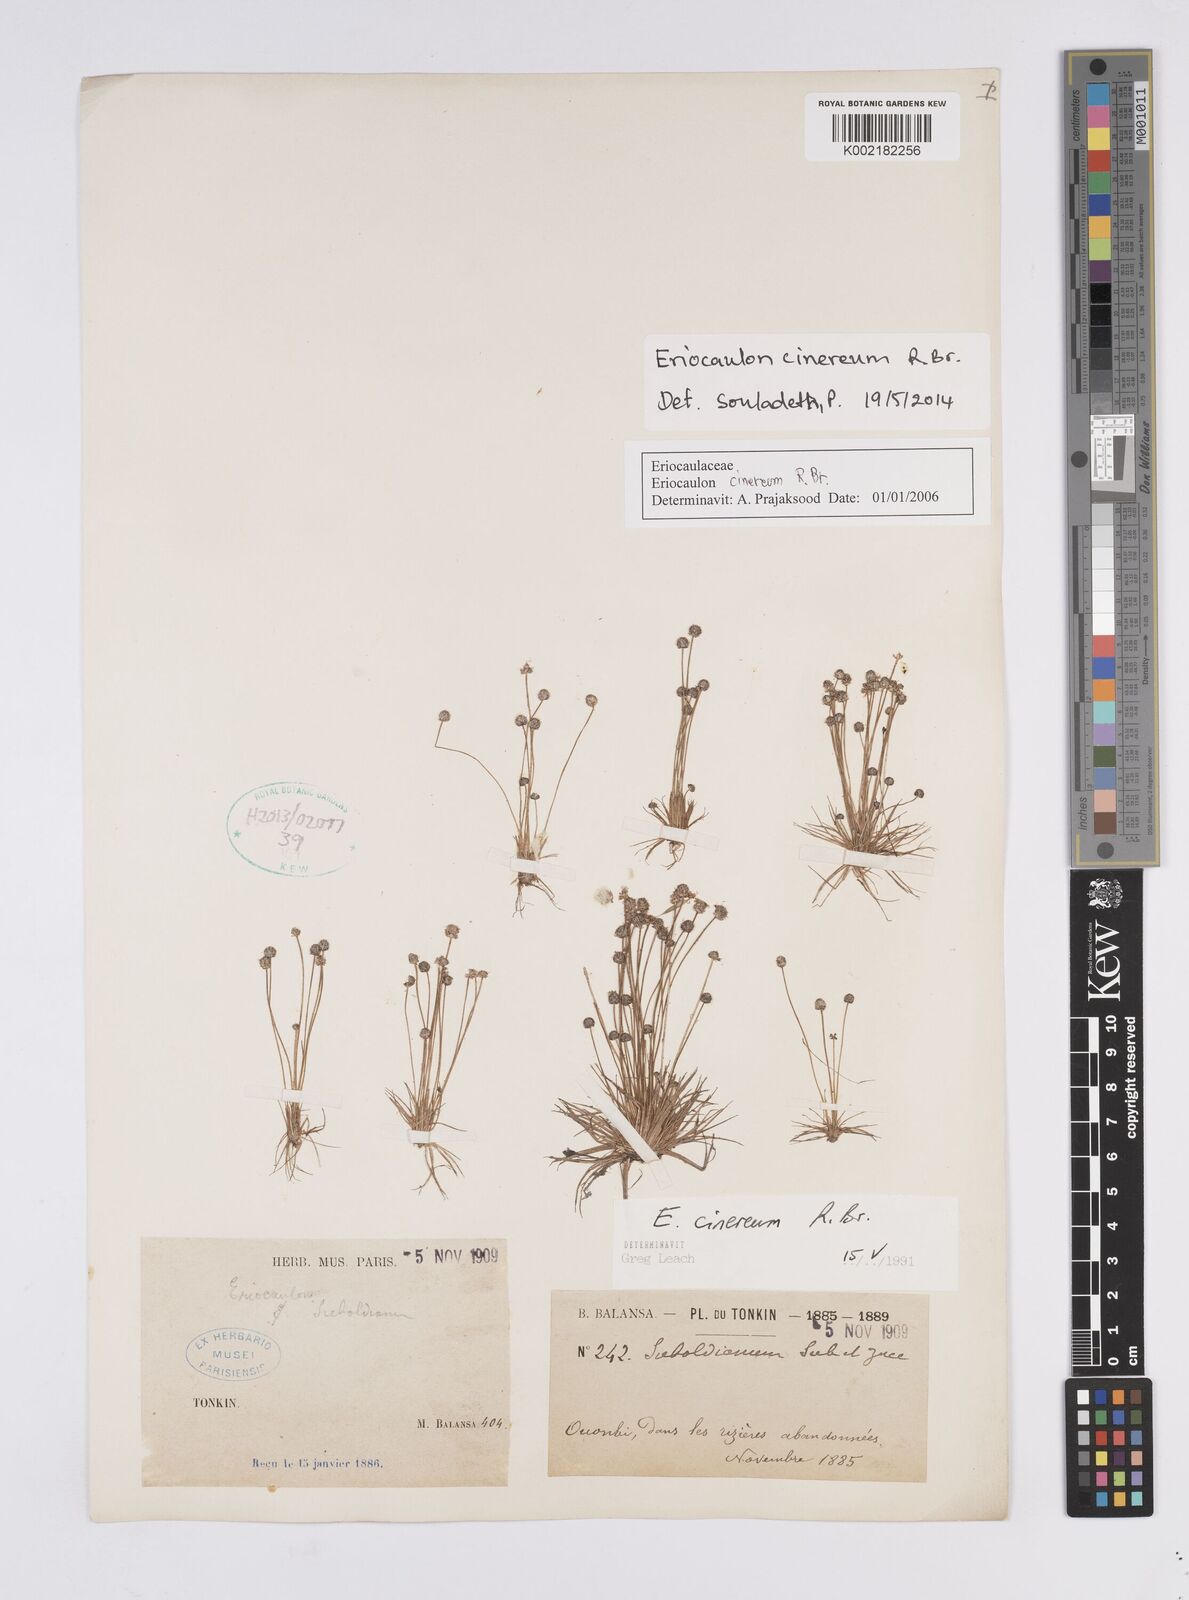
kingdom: Plantae
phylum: Tracheophyta
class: Liliopsida
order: Poales
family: Eriocaulaceae
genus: Eriocaulon
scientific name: Eriocaulon cinereum
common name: Ashy pipewort
